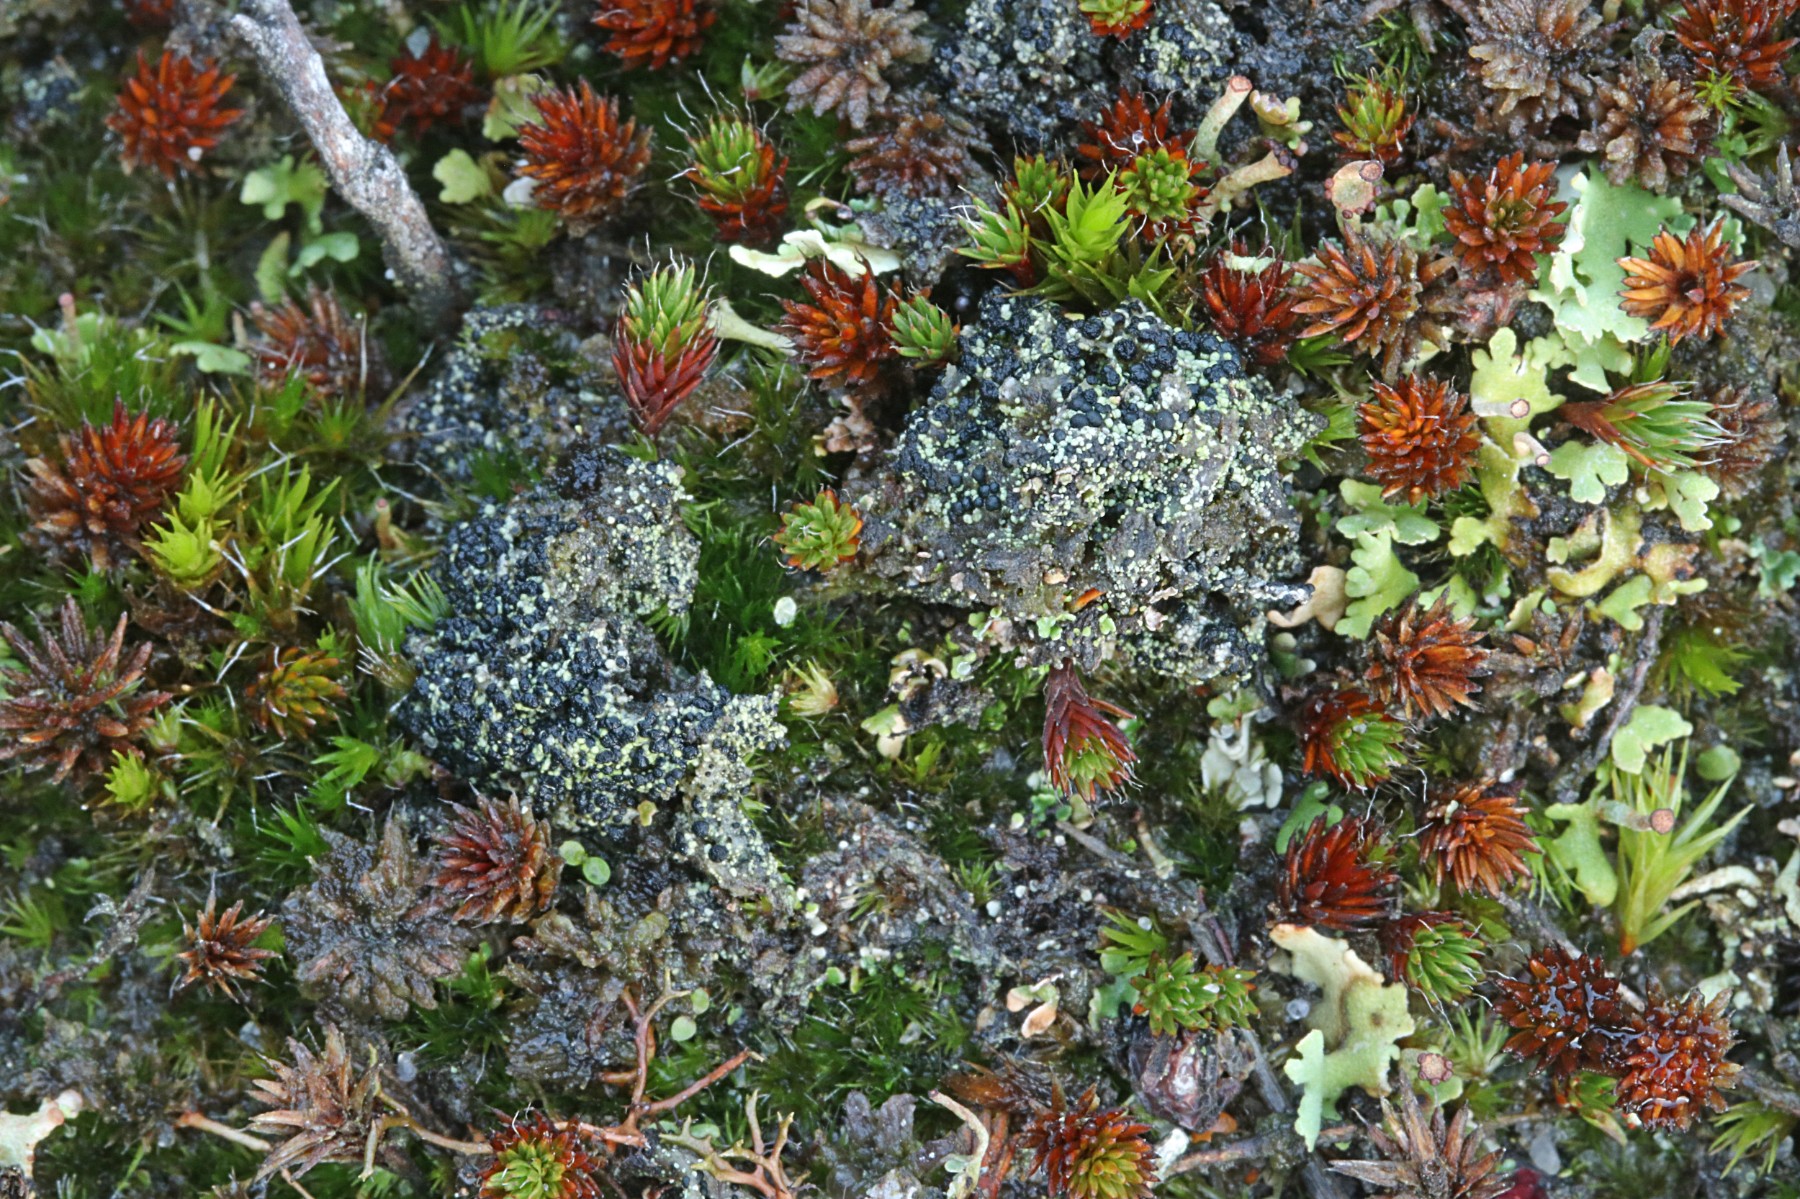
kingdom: Fungi
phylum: Ascomycota
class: Lecanoromycetes
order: Lecanorales
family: Byssolomataceae
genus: Micarea
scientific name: Micarea lignaria
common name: tørve-knaplav
